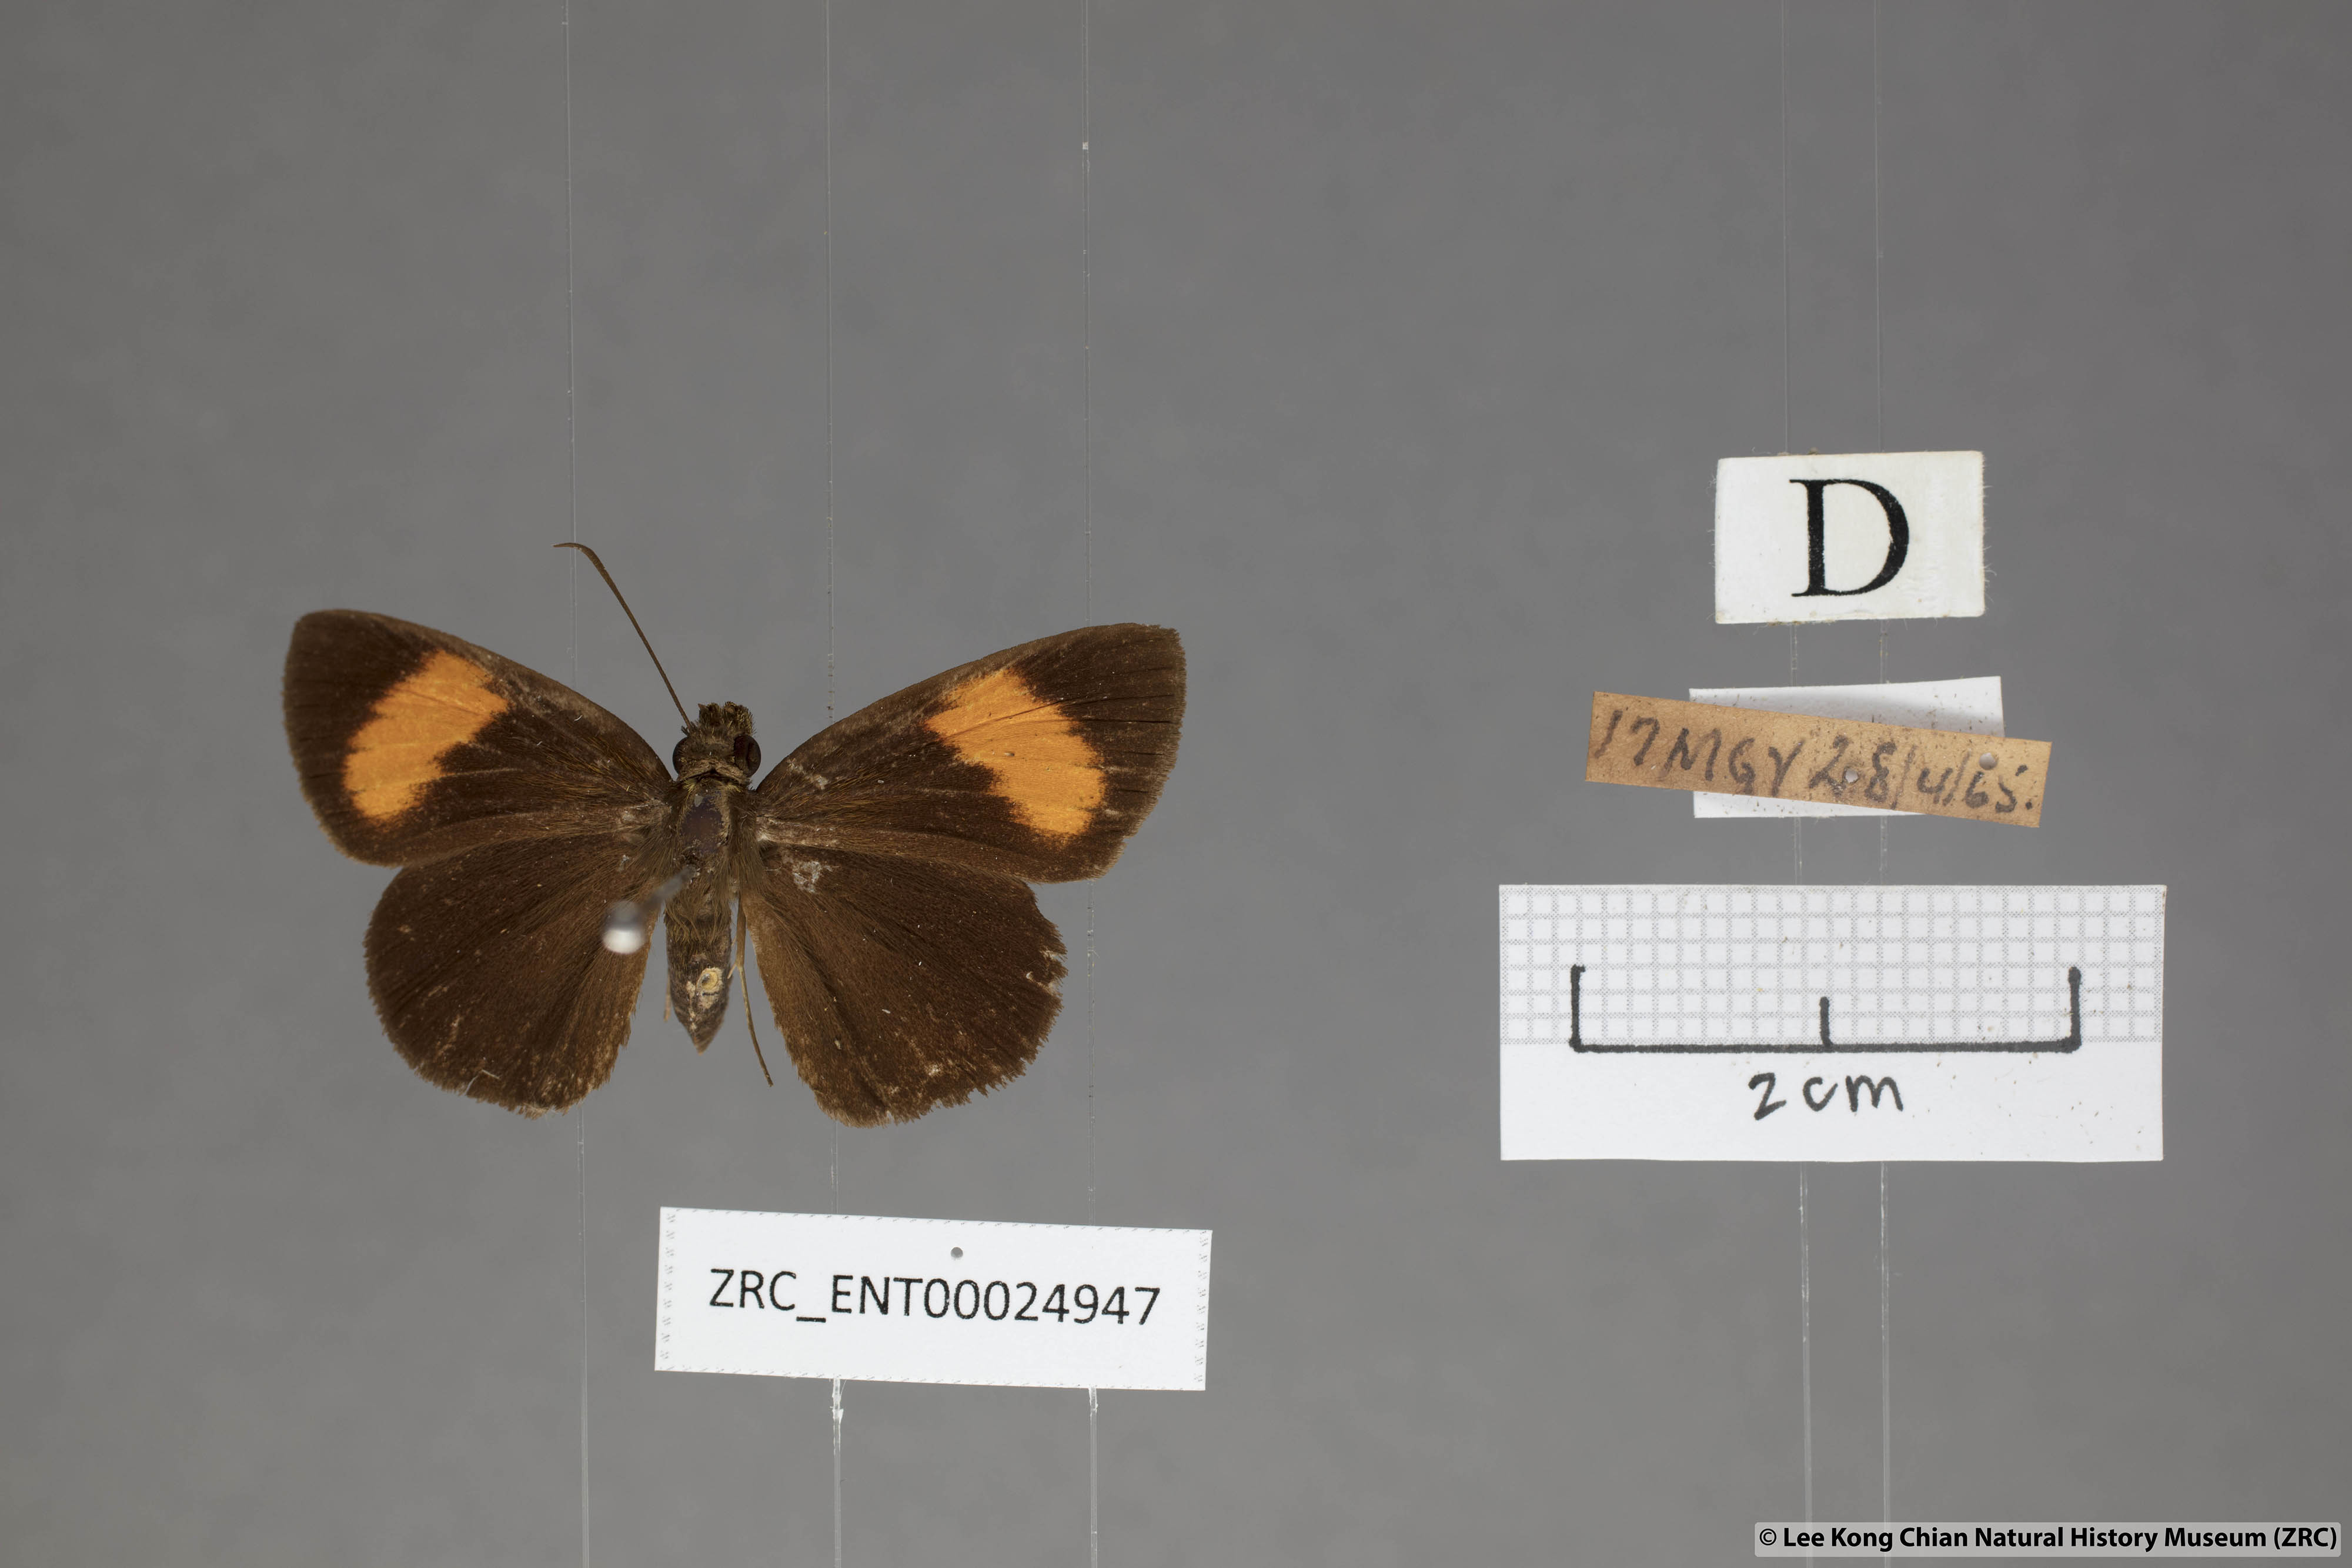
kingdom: Animalia
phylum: Arthropoda
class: Insecta
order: Lepidoptera
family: Hesperiidae
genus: Koruthaialos
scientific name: Koruthaialos sindu
